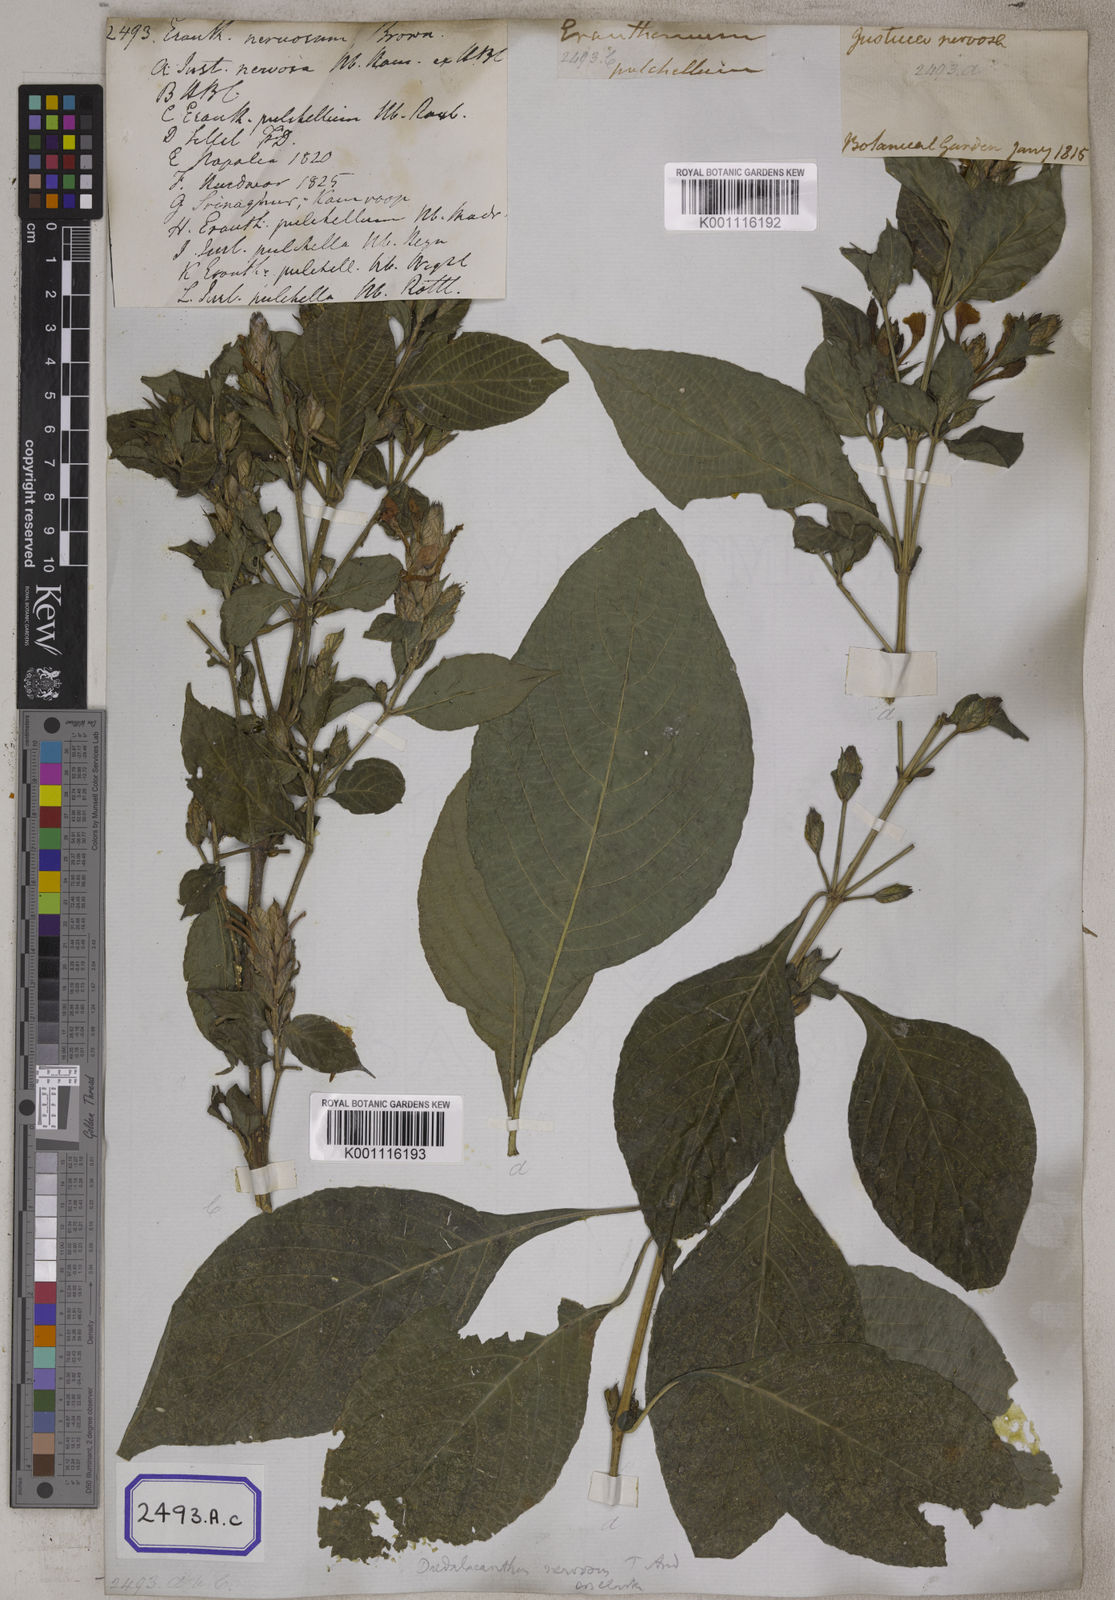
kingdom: Plantae
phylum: Tracheophyta
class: Magnoliopsida
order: Lamiales
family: Acanthaceae
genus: Eranthemum
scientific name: Eranthemum
